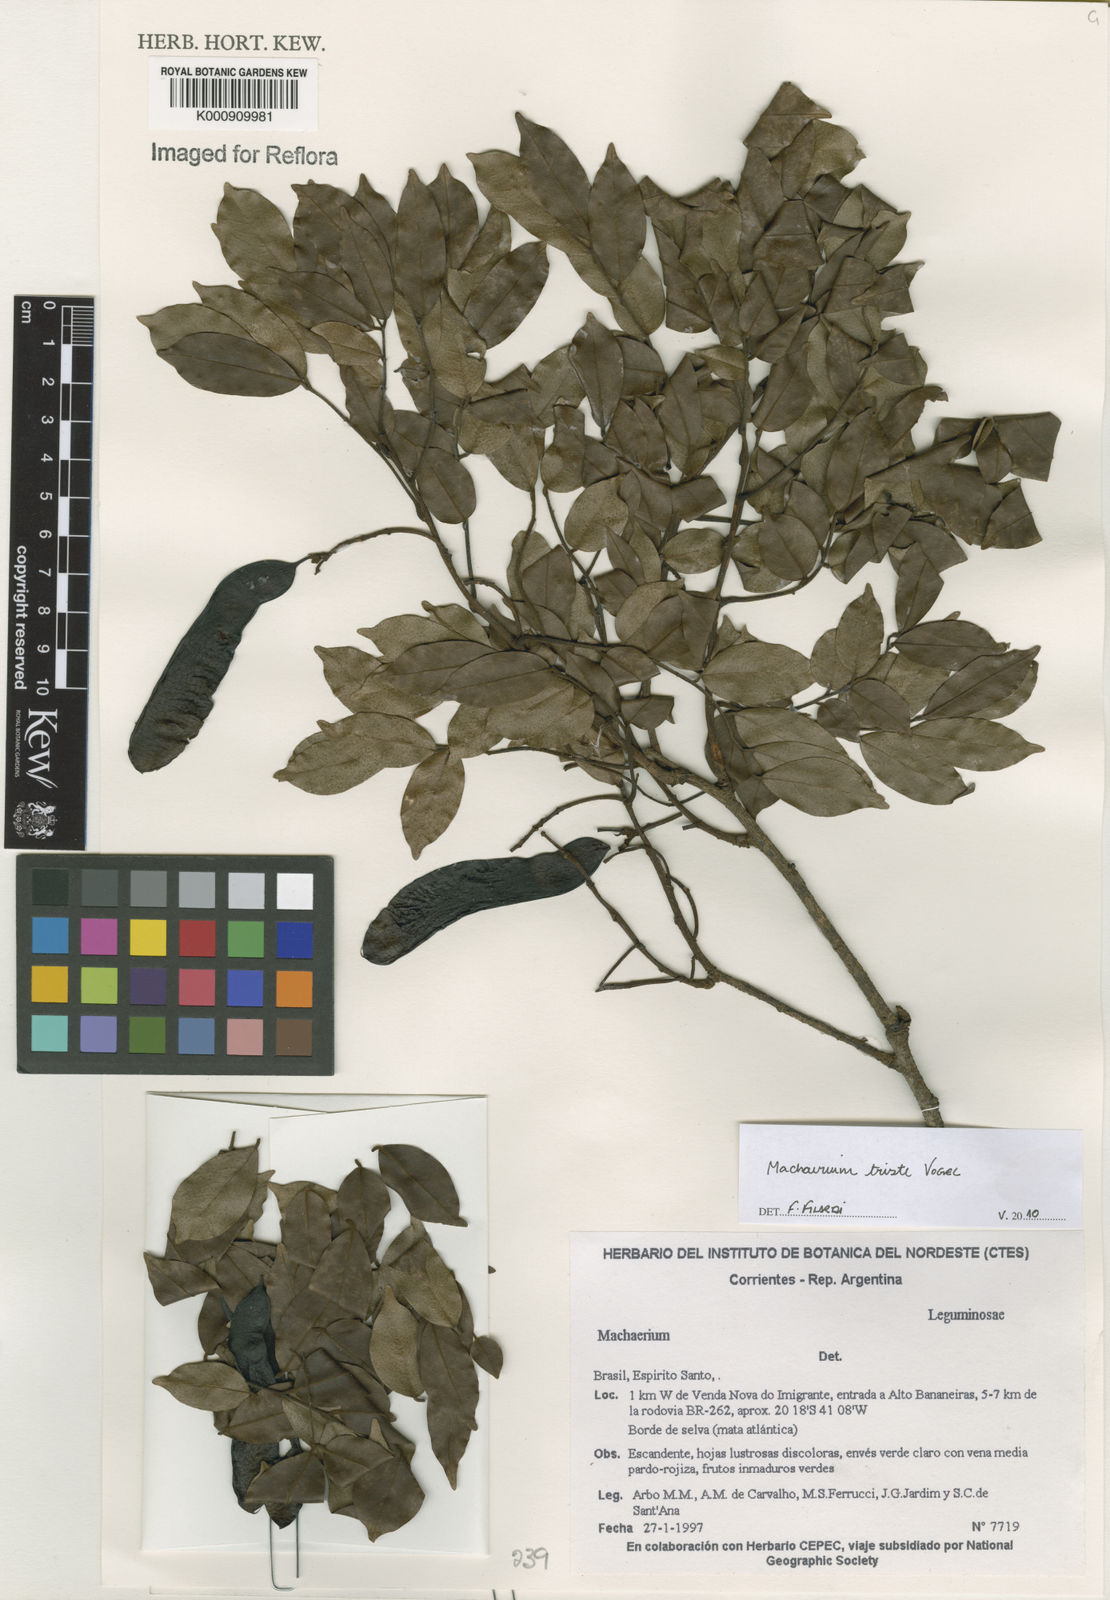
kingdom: Plantae
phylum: Tracheophyta
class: Magnoliopsida
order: Fabales
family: Fabaceae
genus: Machaerium
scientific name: Machaerium brasiliense
